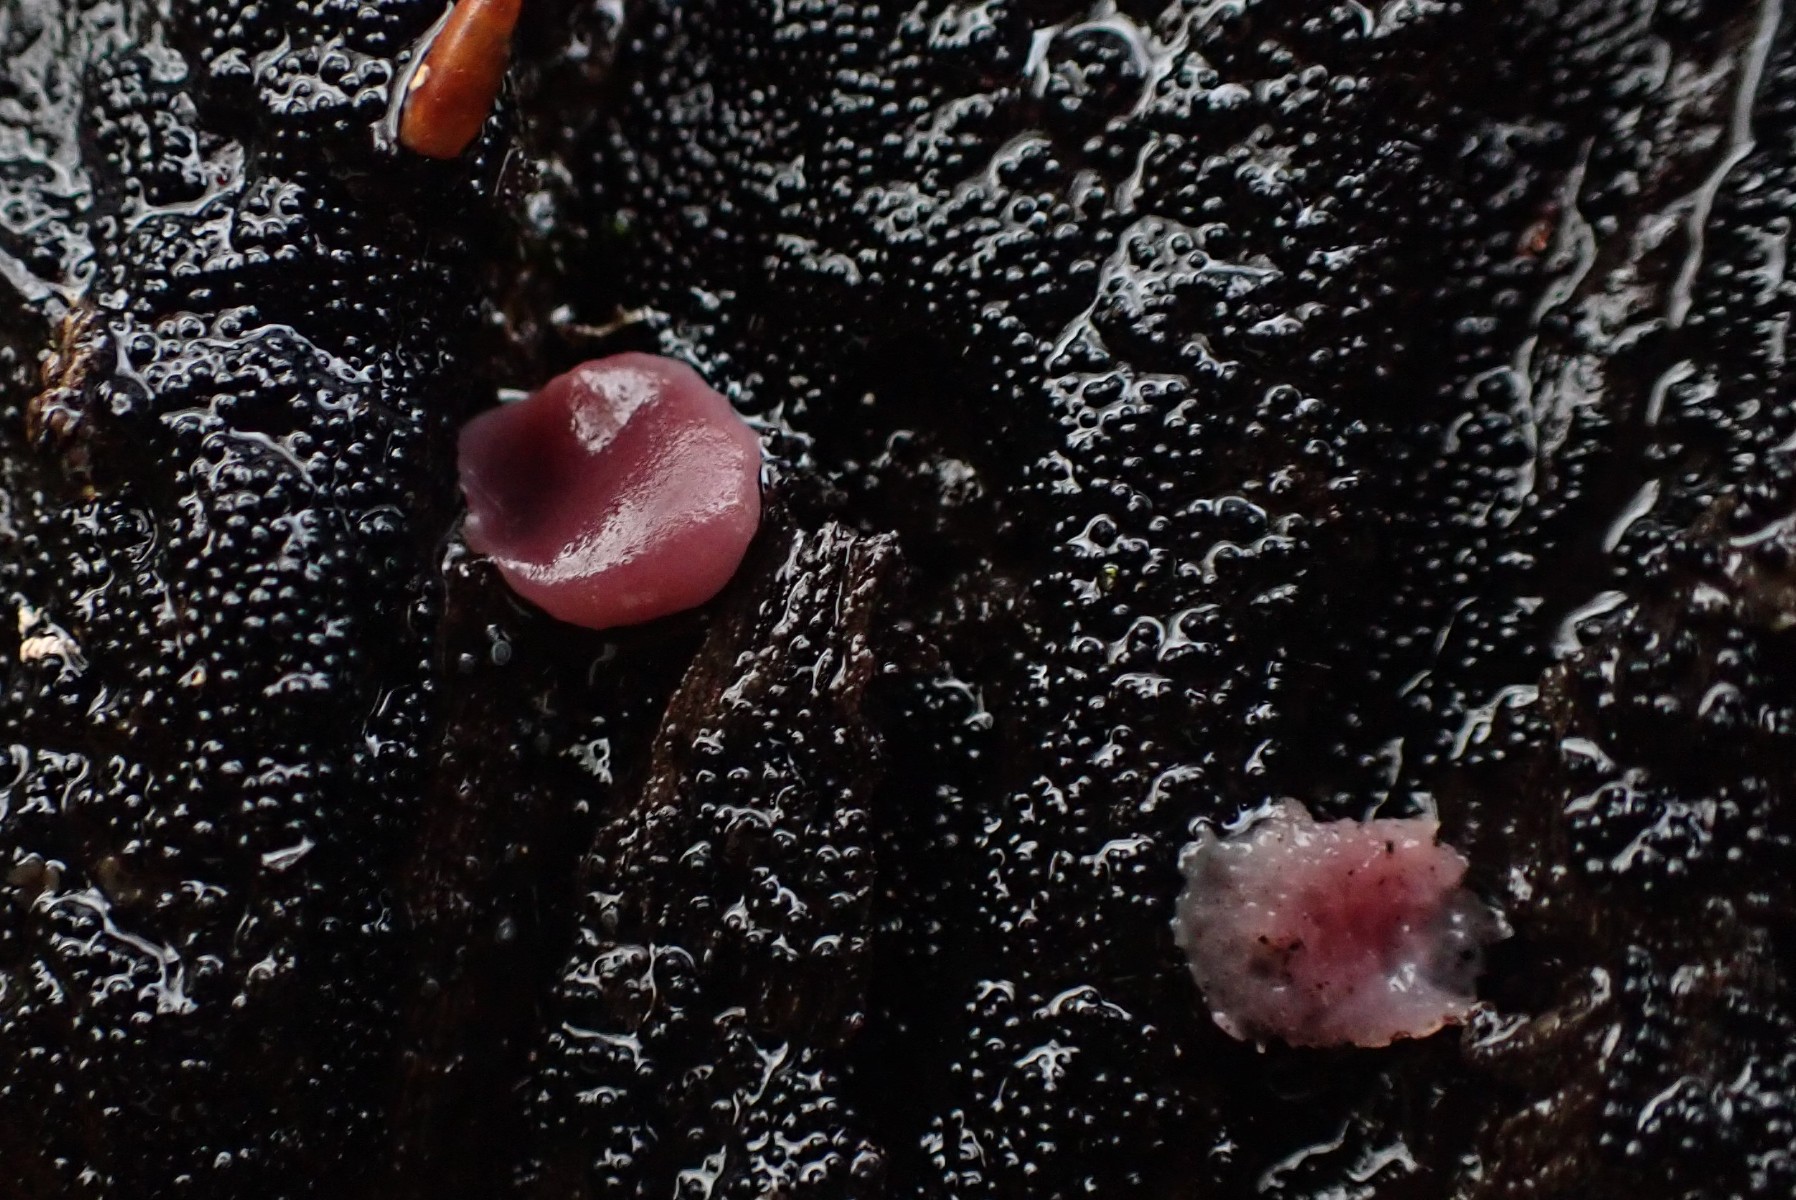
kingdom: Fungi
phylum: Ascomycota
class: Leotiomycetes
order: Helotiales
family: Gelatinodiscaceae
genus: Ascocoryne
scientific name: Ascocoryne cylichnium
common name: stor sejskive
